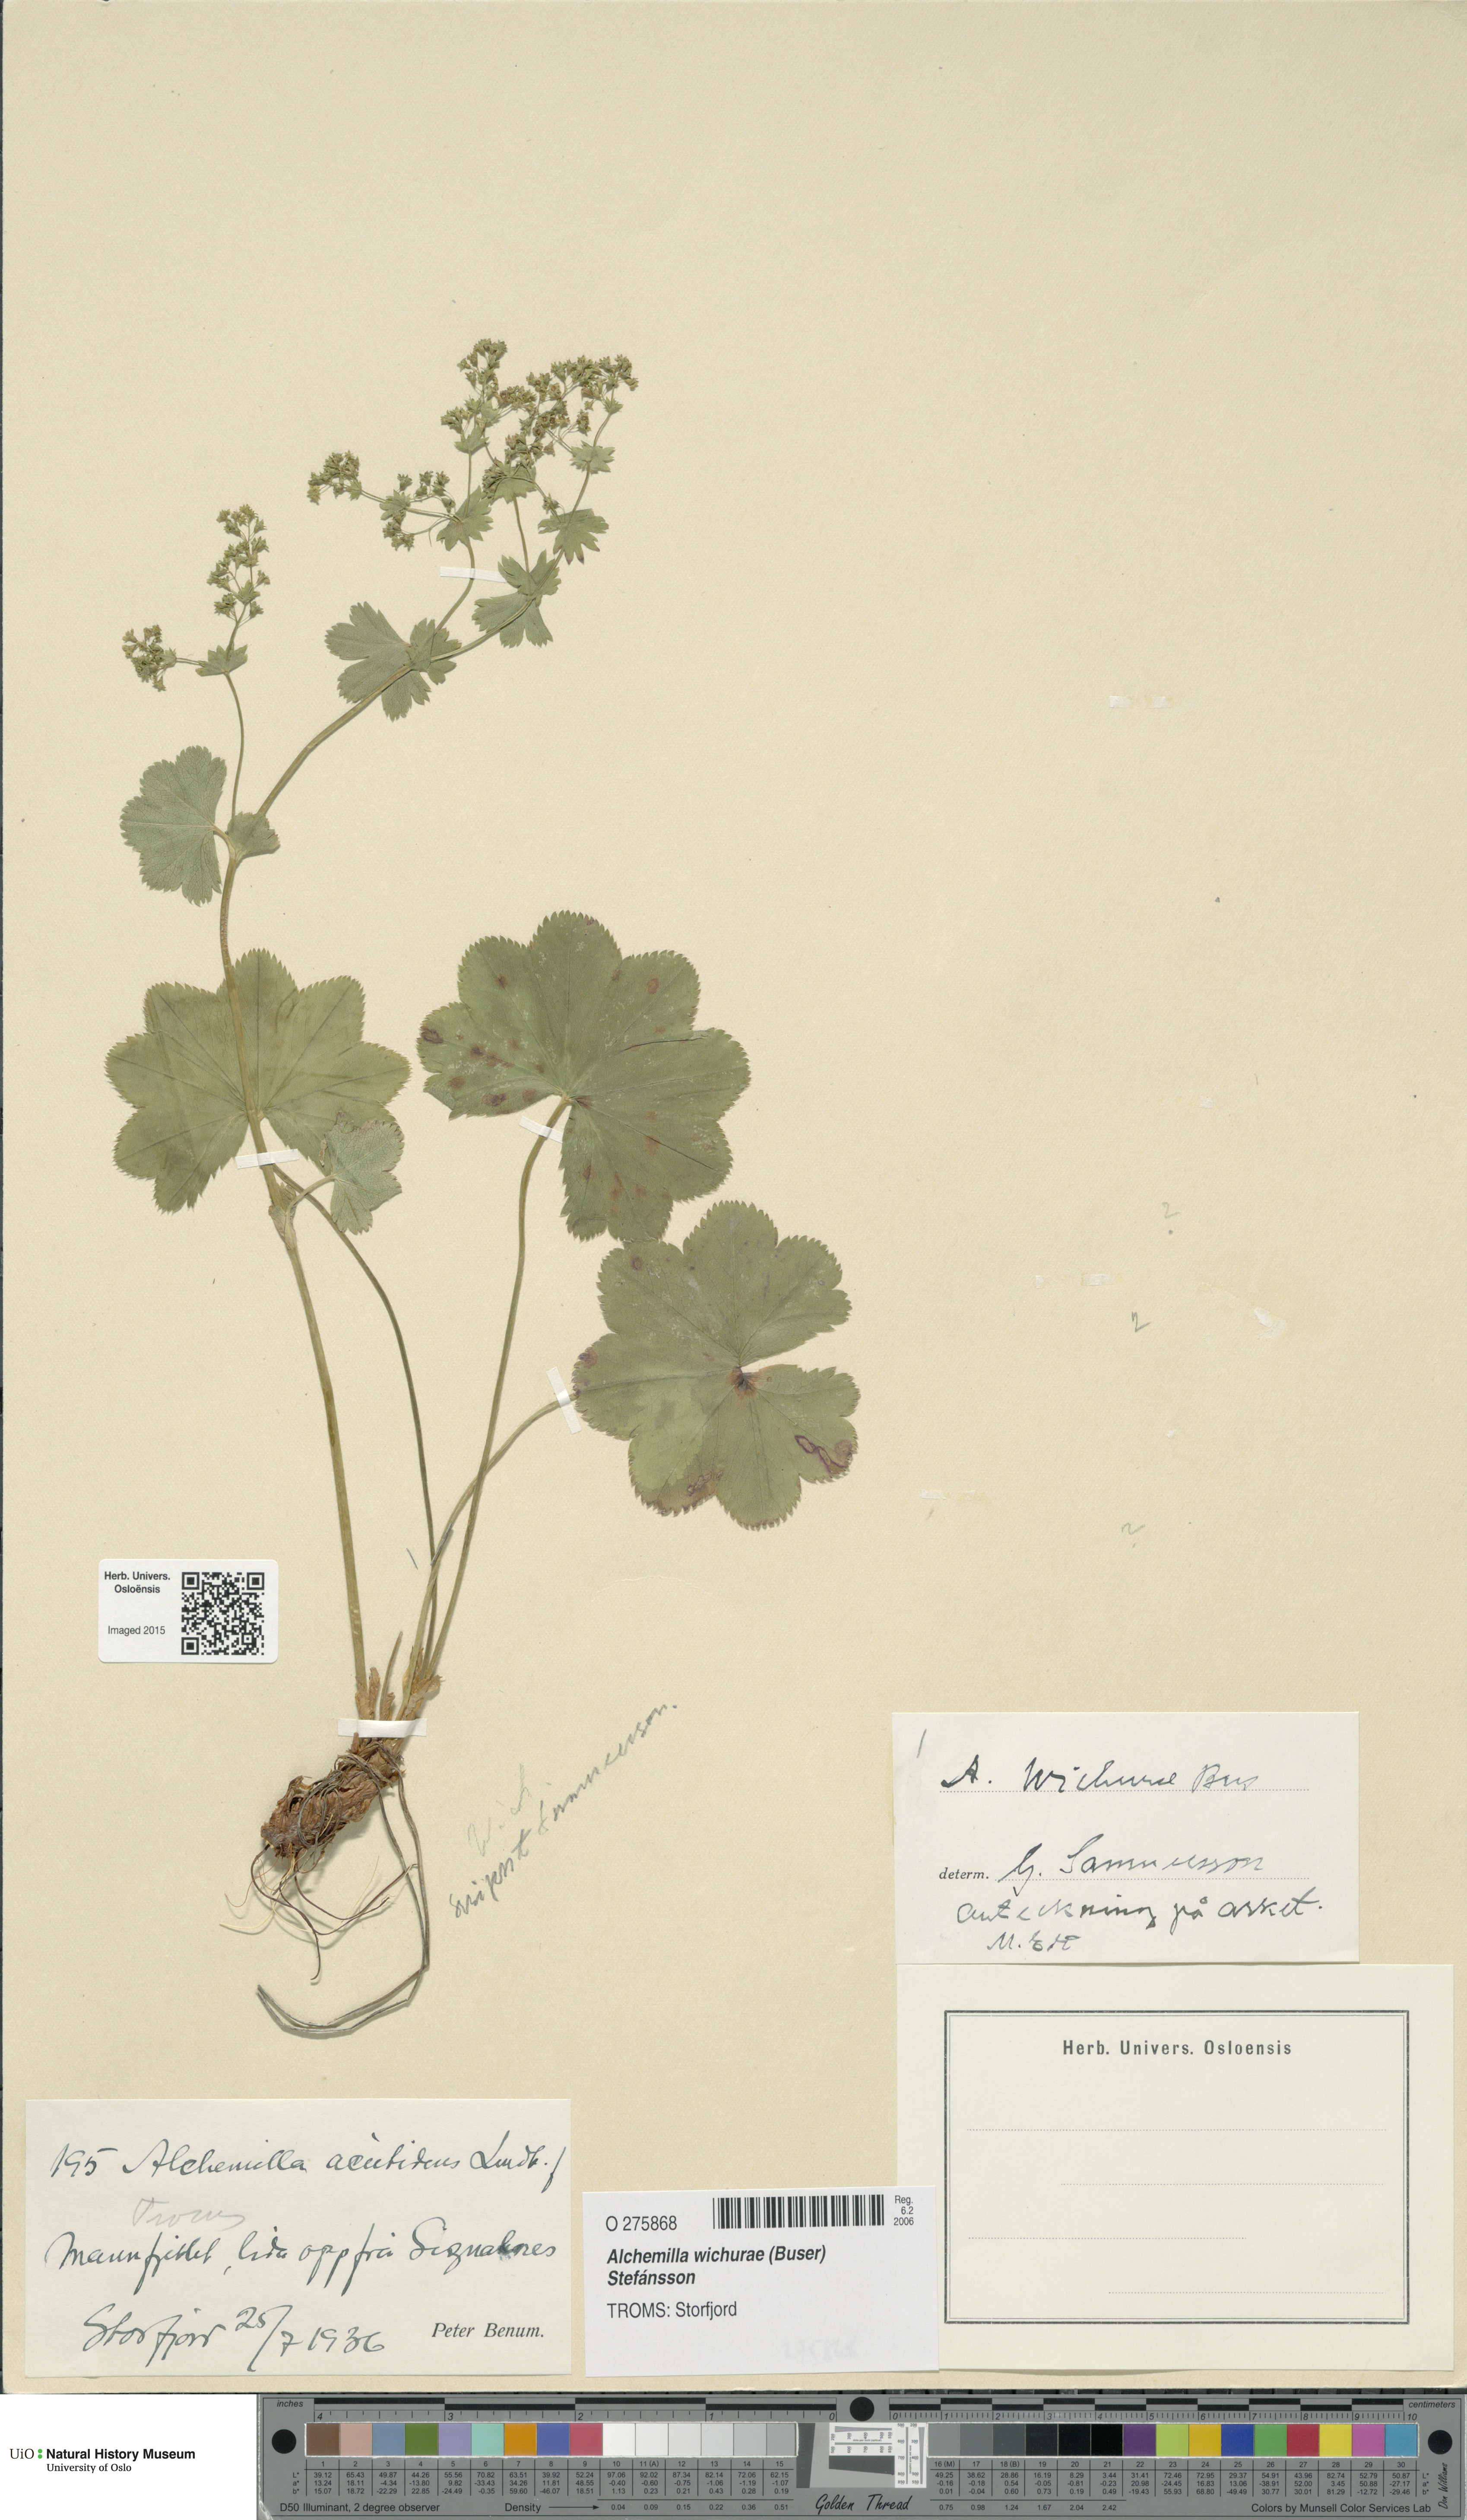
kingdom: Plantae
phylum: Tracheophyta
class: Magnoliopsida
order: Rosales
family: Rosaceae
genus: Alchemilla
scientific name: Alchemilla wichurae
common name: Rock lady's mantle
